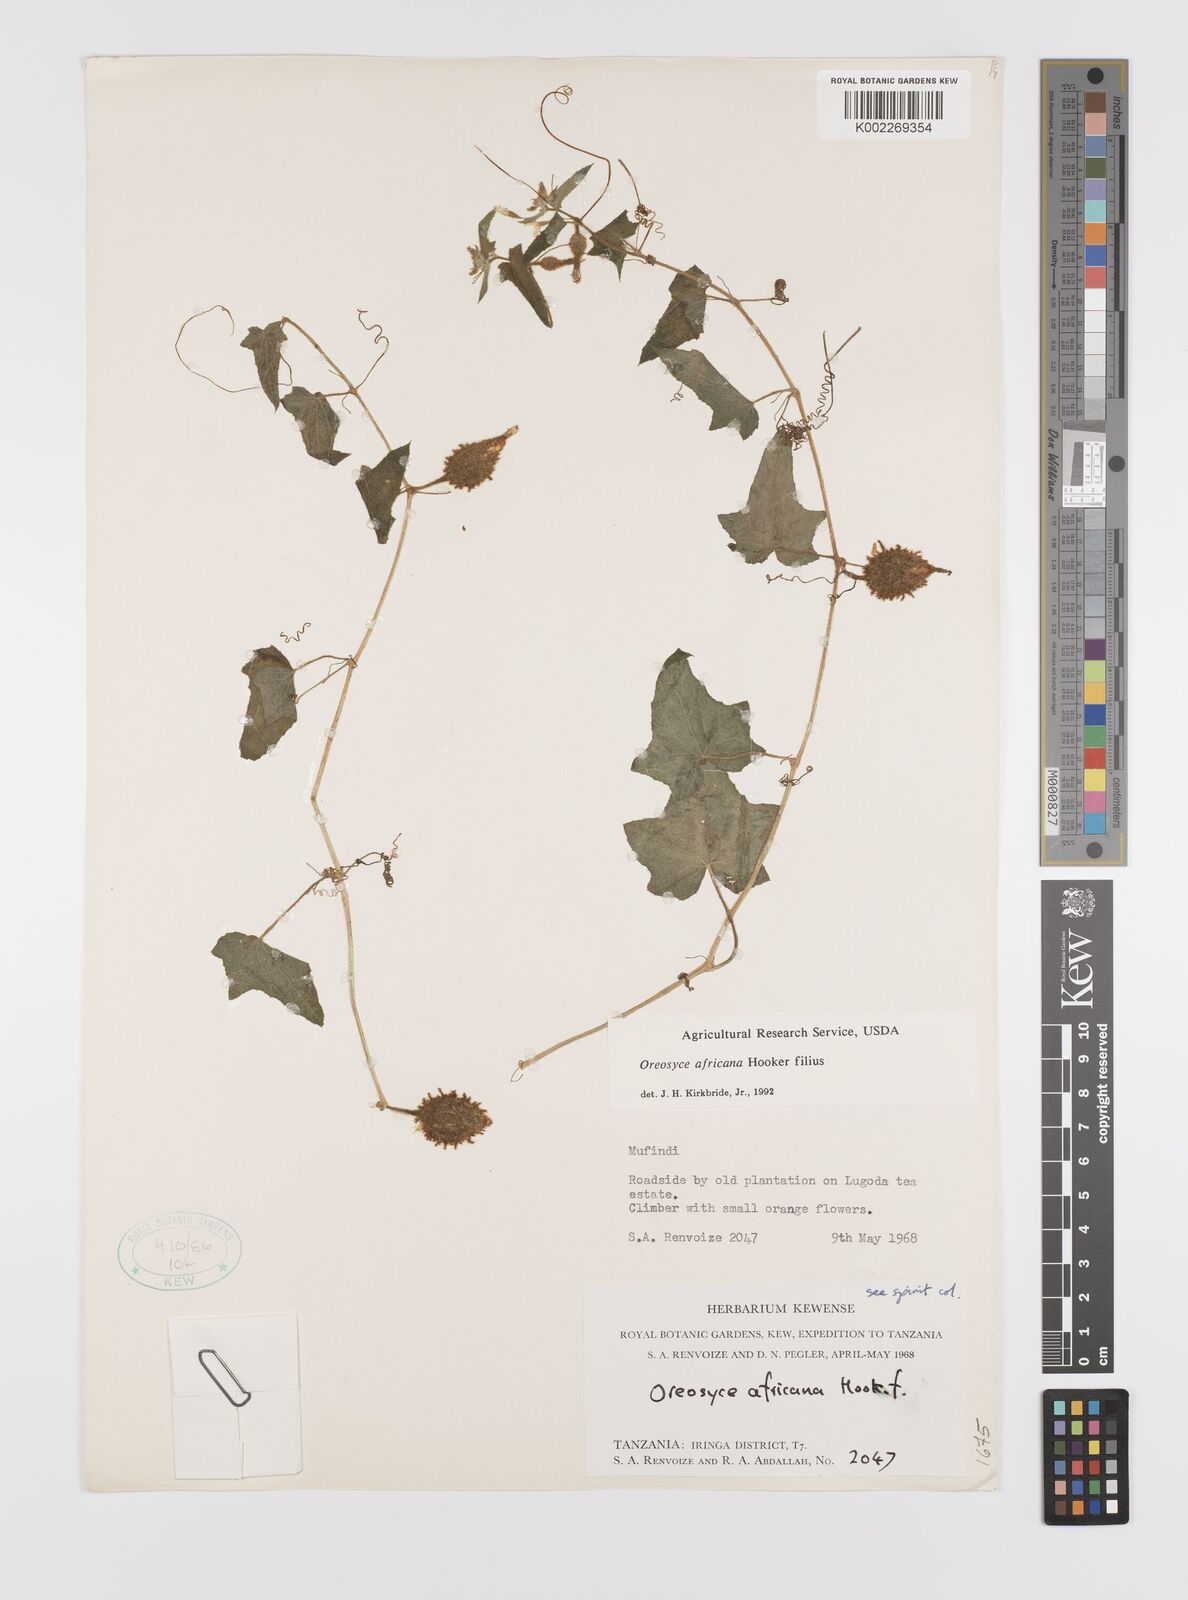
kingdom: Plantae
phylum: Tracheophyta
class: Magnoliopsida
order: Cucurbitales
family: Cucurbitaceae
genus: Cucumis
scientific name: Cucumis oreosyce
